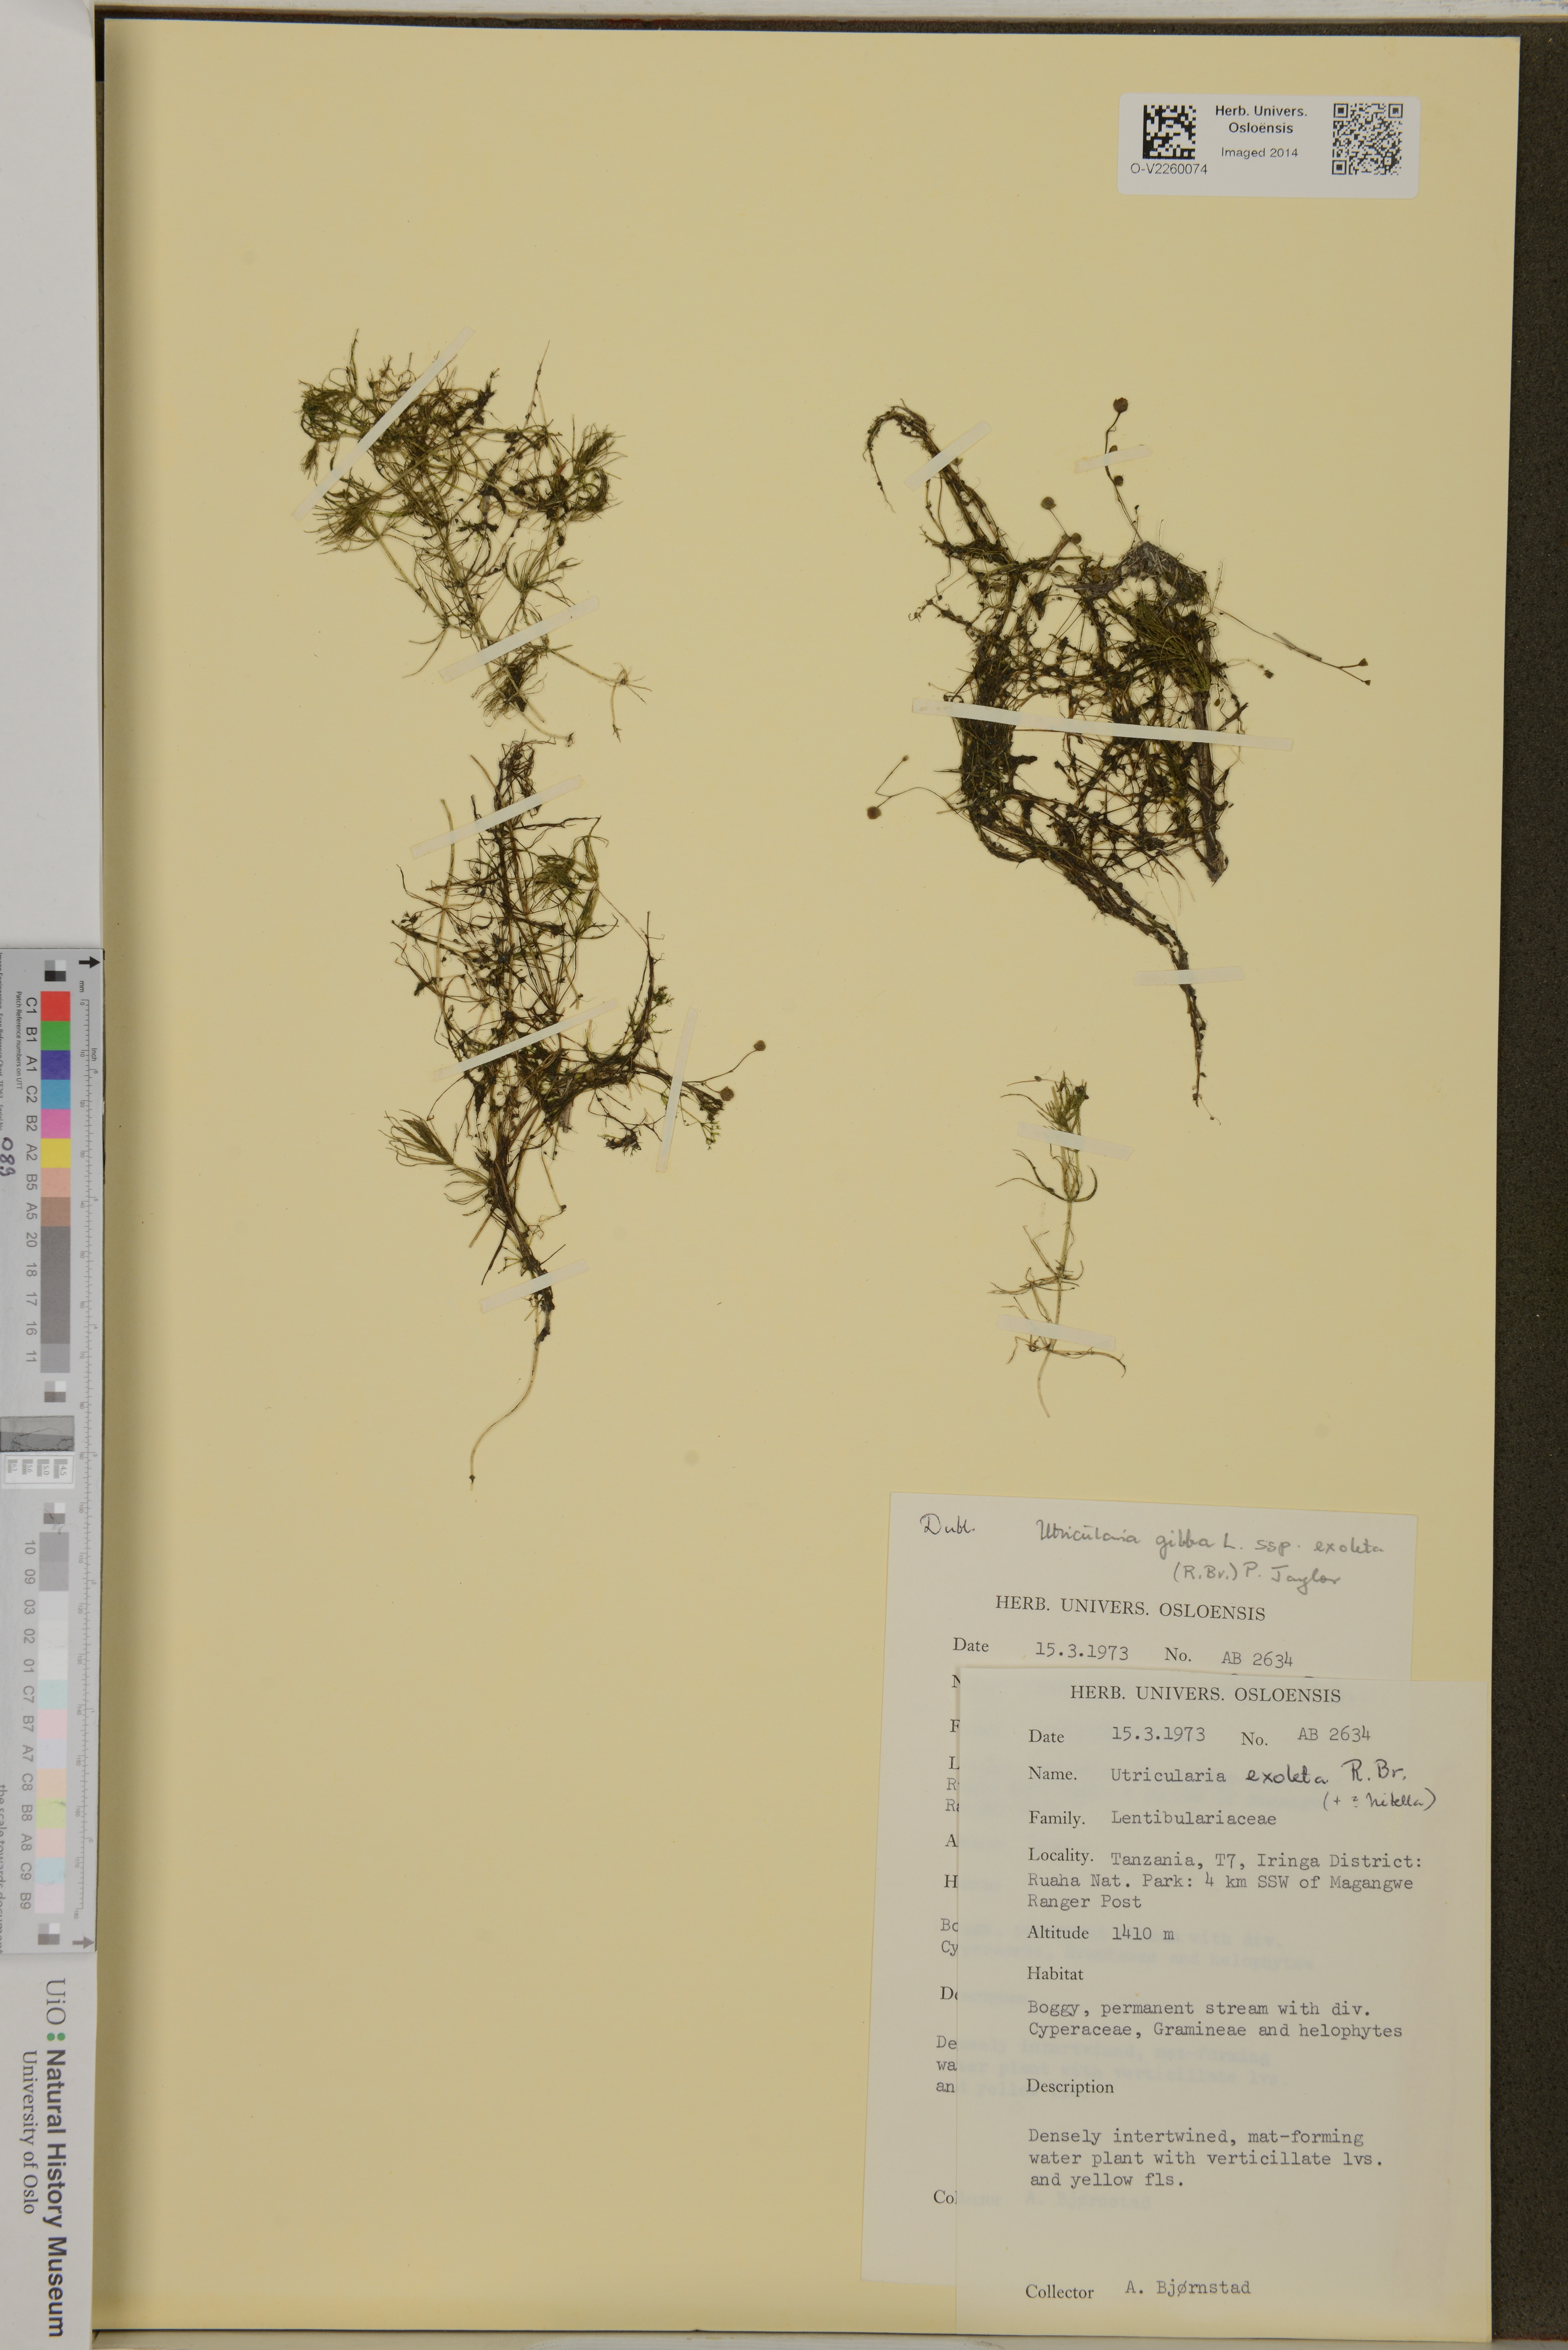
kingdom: Plantae
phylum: Tracheophyta
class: Magnoliopsida
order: Lamiales
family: Lentibulariaceae
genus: Utricularia
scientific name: Utricularia gibba
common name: Humped bladderwort
